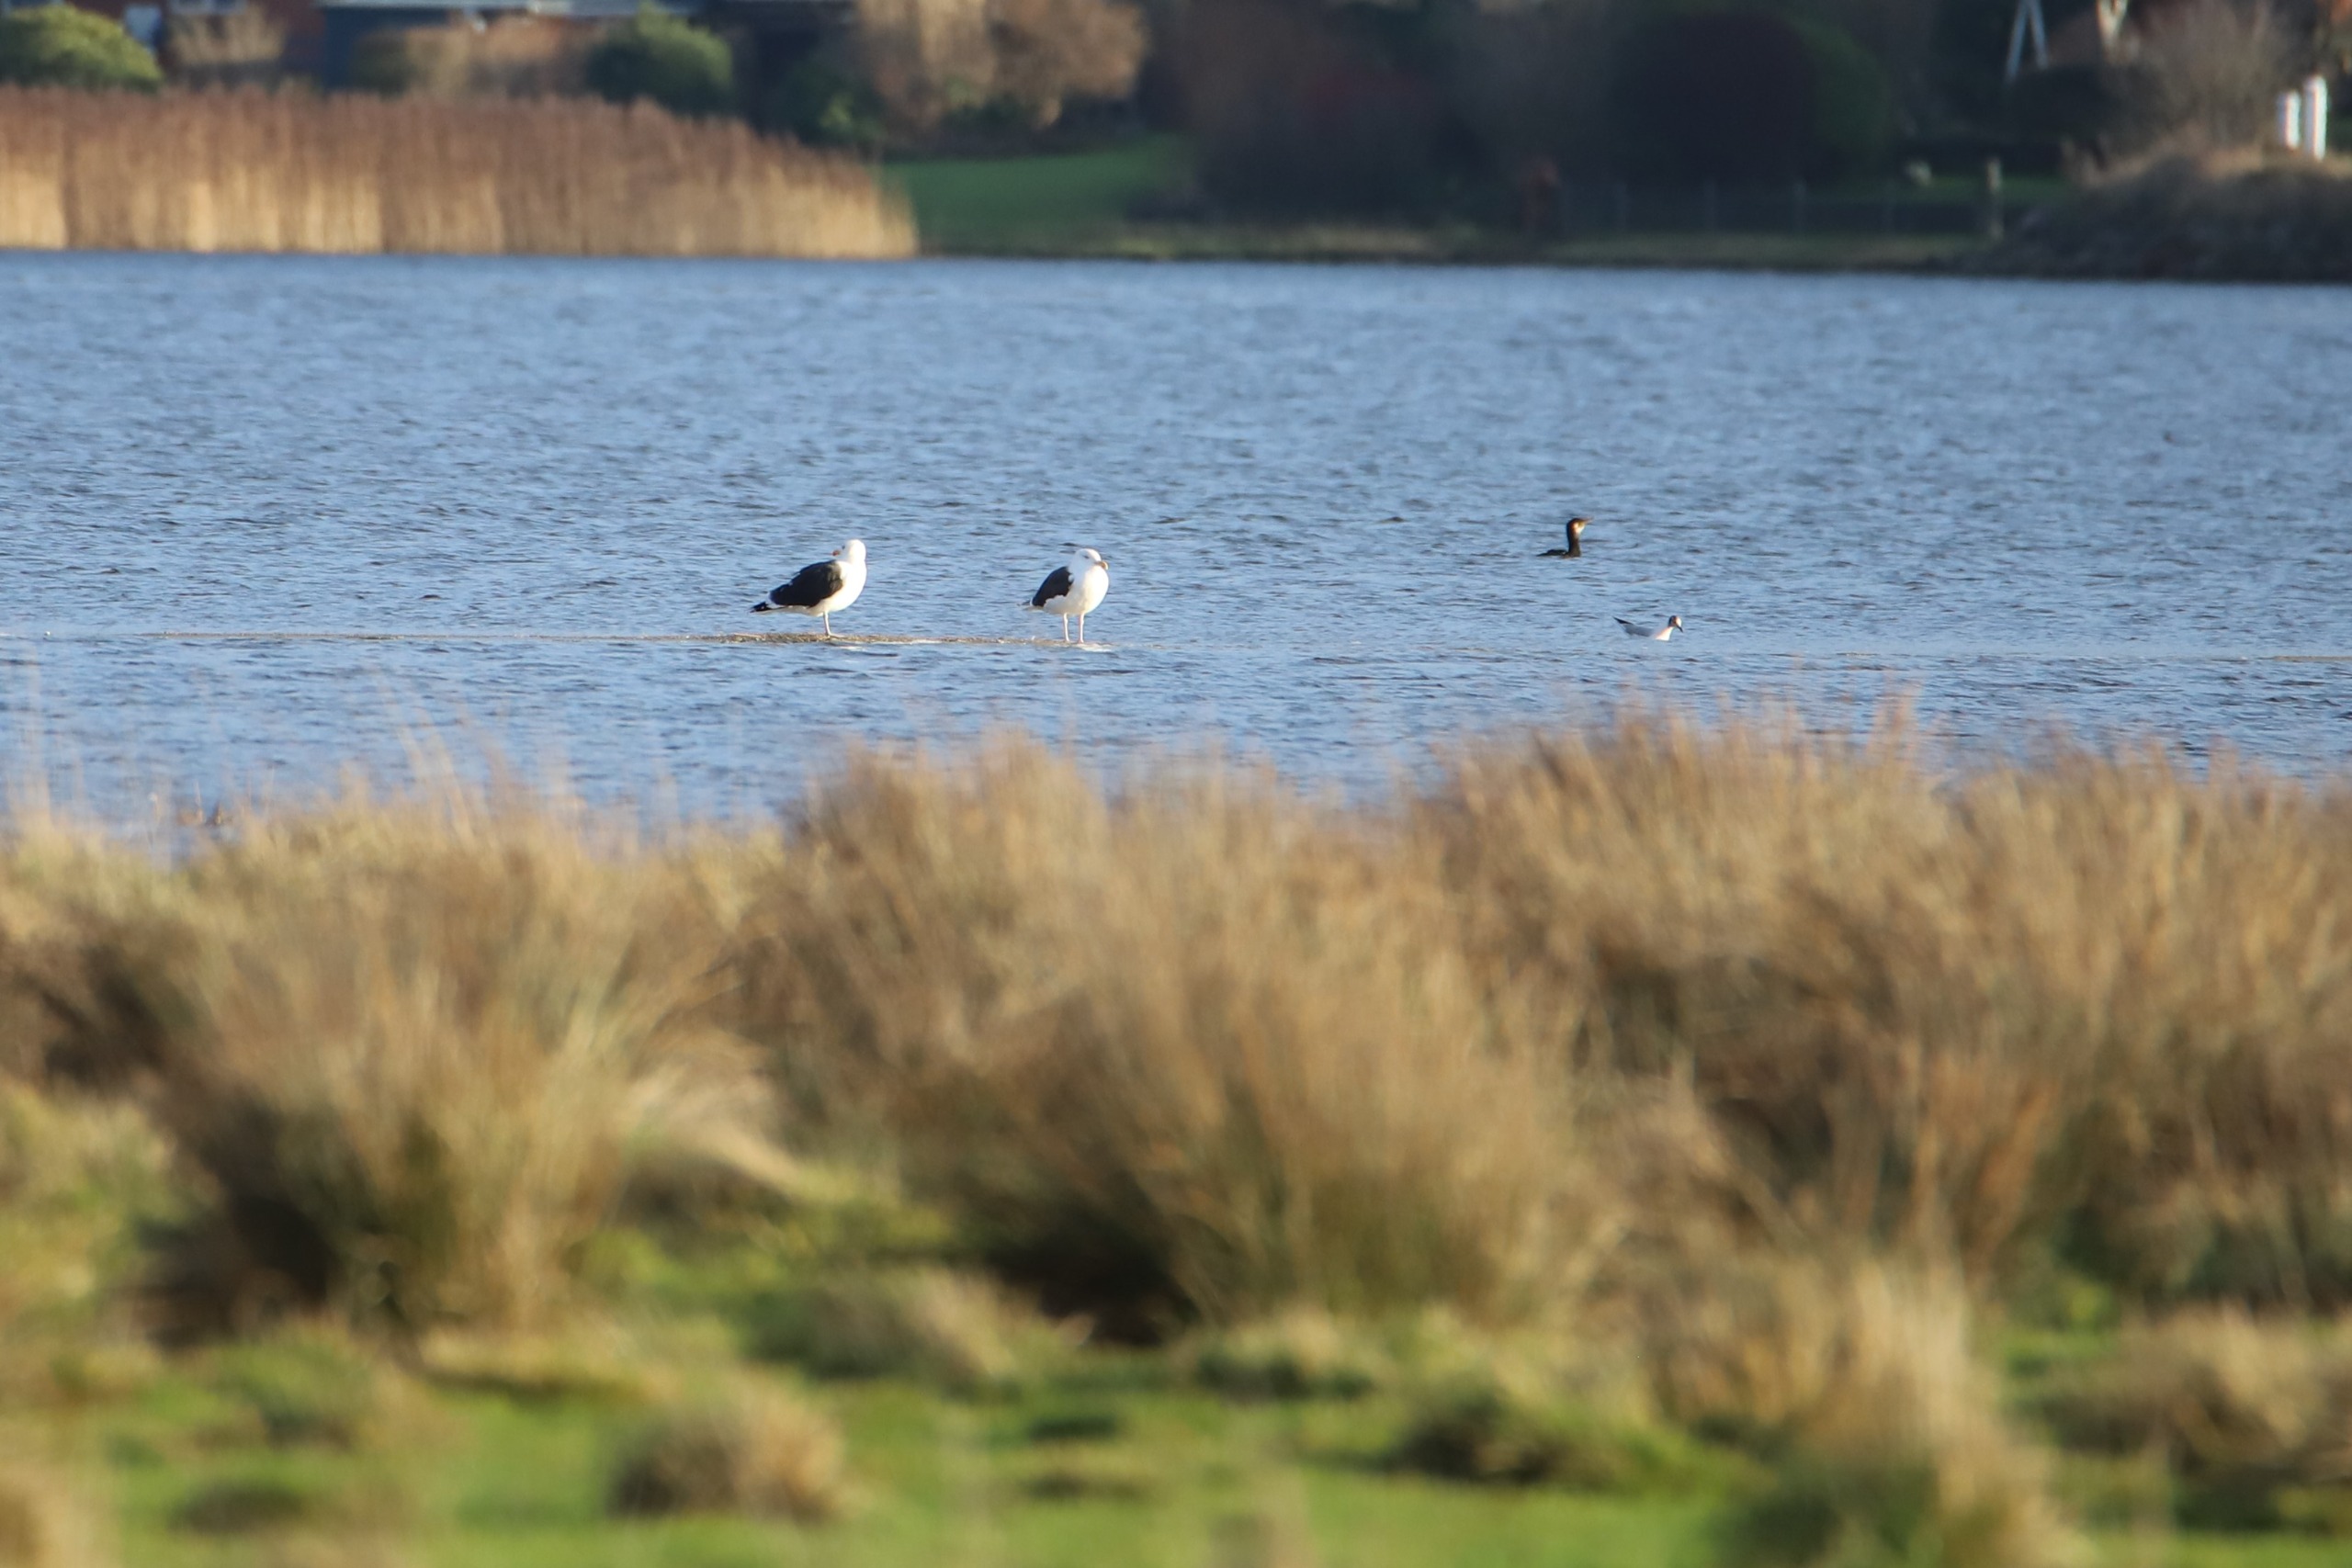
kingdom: Animalia
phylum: Chordata
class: Aves
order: Charadriiformes
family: Laridae
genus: Larus
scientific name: Larus marinus
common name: Svartbag
